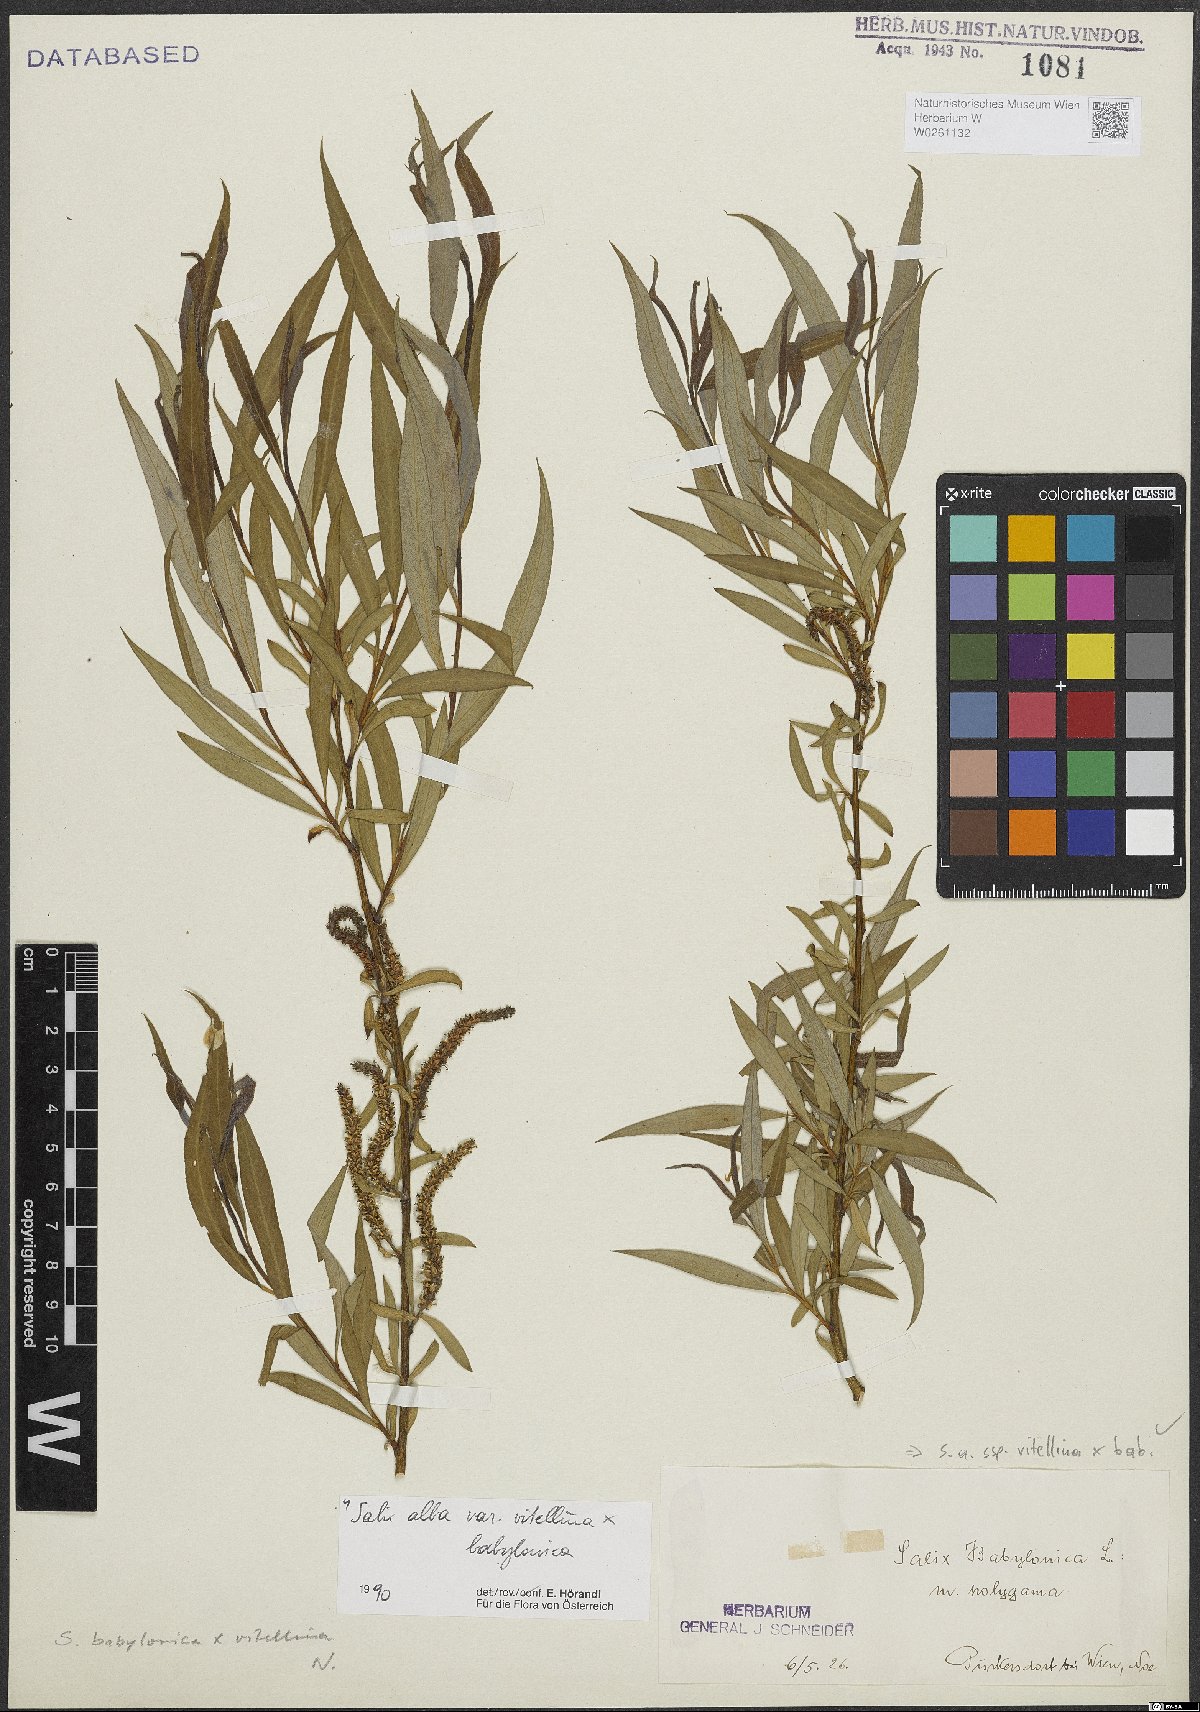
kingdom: Plantae
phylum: Tracheophyta
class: Magnoliopsida
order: Malpighiales
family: Salicaceae
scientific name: Salicaceae
